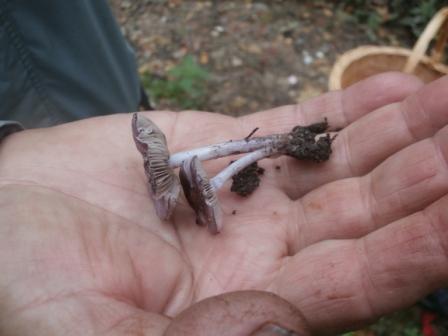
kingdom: Fungi
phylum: Basidiomycota
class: Agaricomycetes
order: Agaricales
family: Inocybaceae
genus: Inocybe
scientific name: Inocybe geophylla
